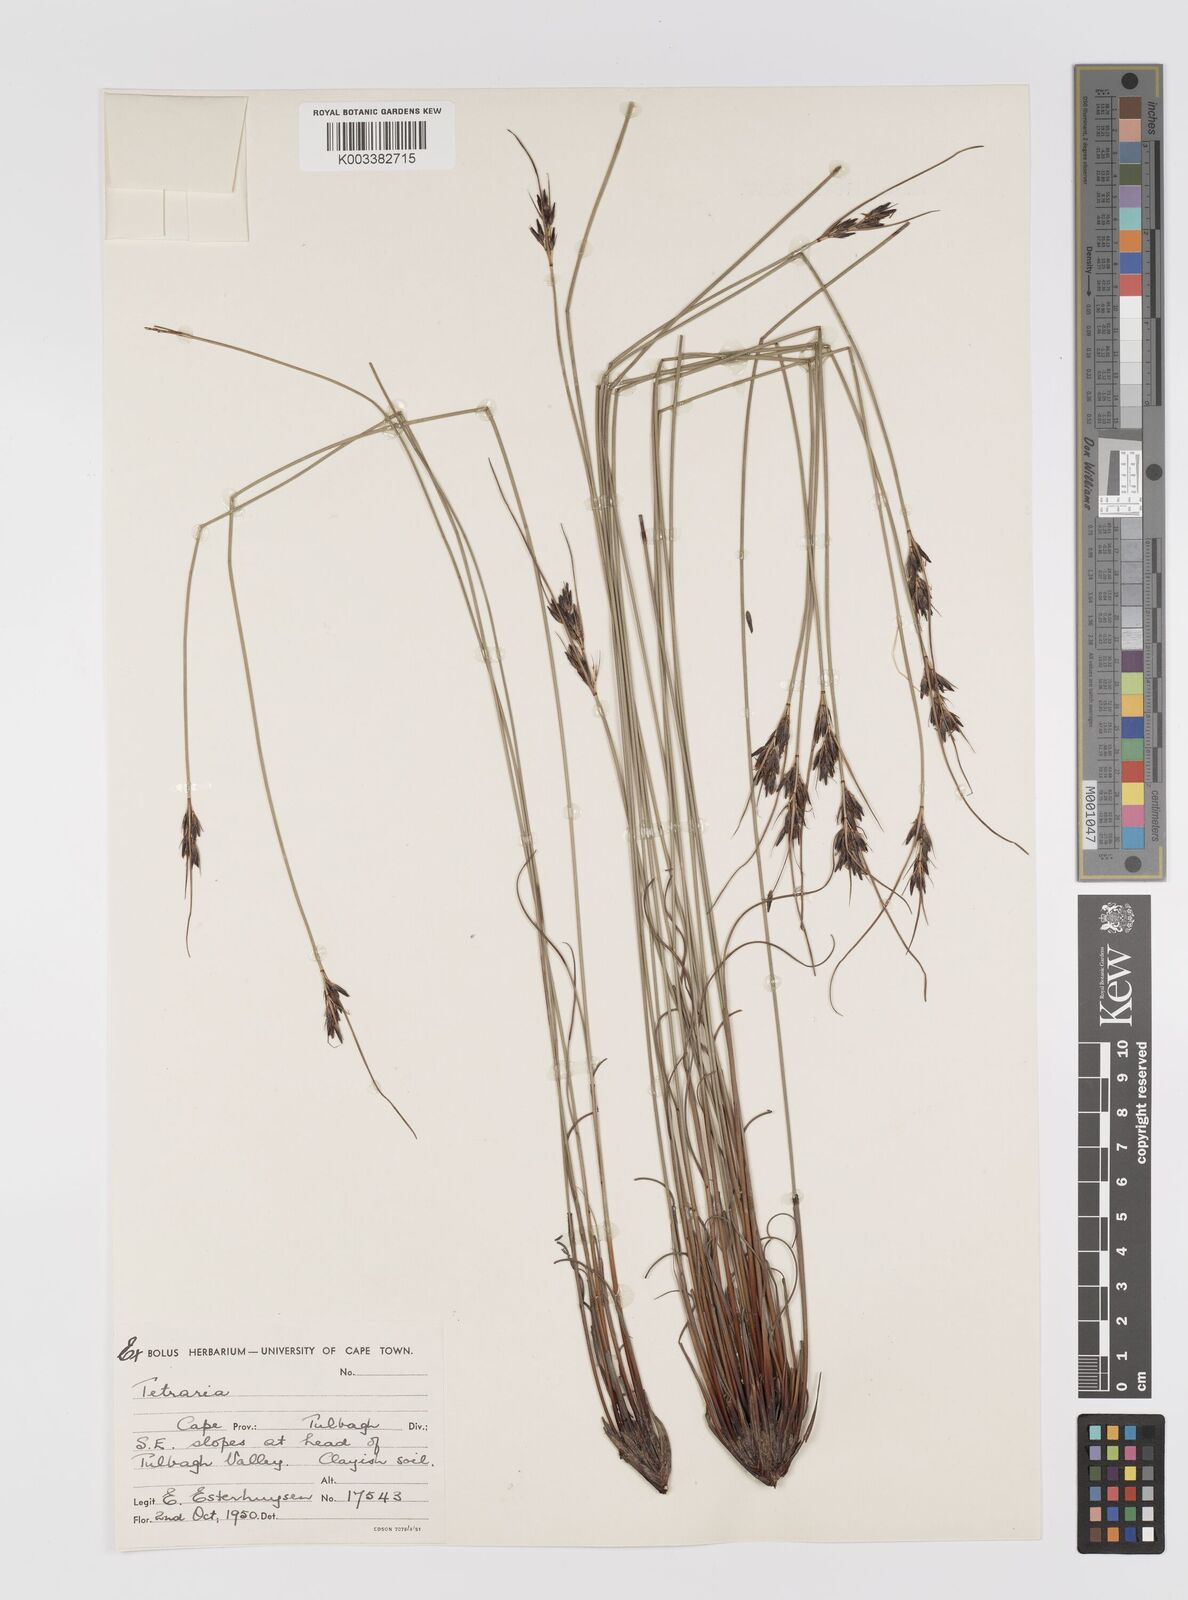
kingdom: Plantae
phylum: Tracheophyta
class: Liliopsida
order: Poales
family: Cyperaceae
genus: Schoenus
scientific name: Schoenus
